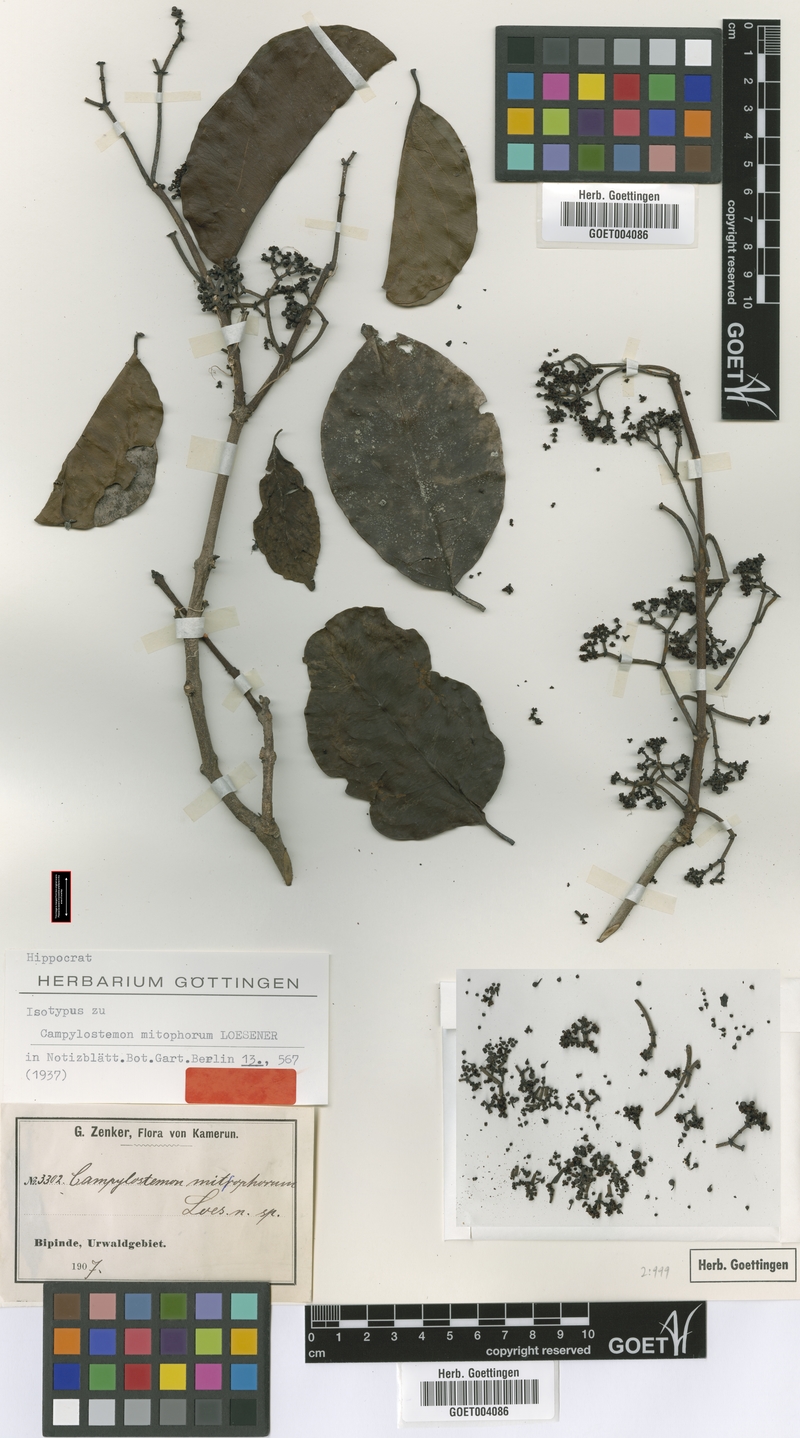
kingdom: Plantae
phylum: Tracheophyta
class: Magnoliopsida
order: Celastrales
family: Celastraceae
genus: Campylostemon
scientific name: Campylostemon mitophorum
